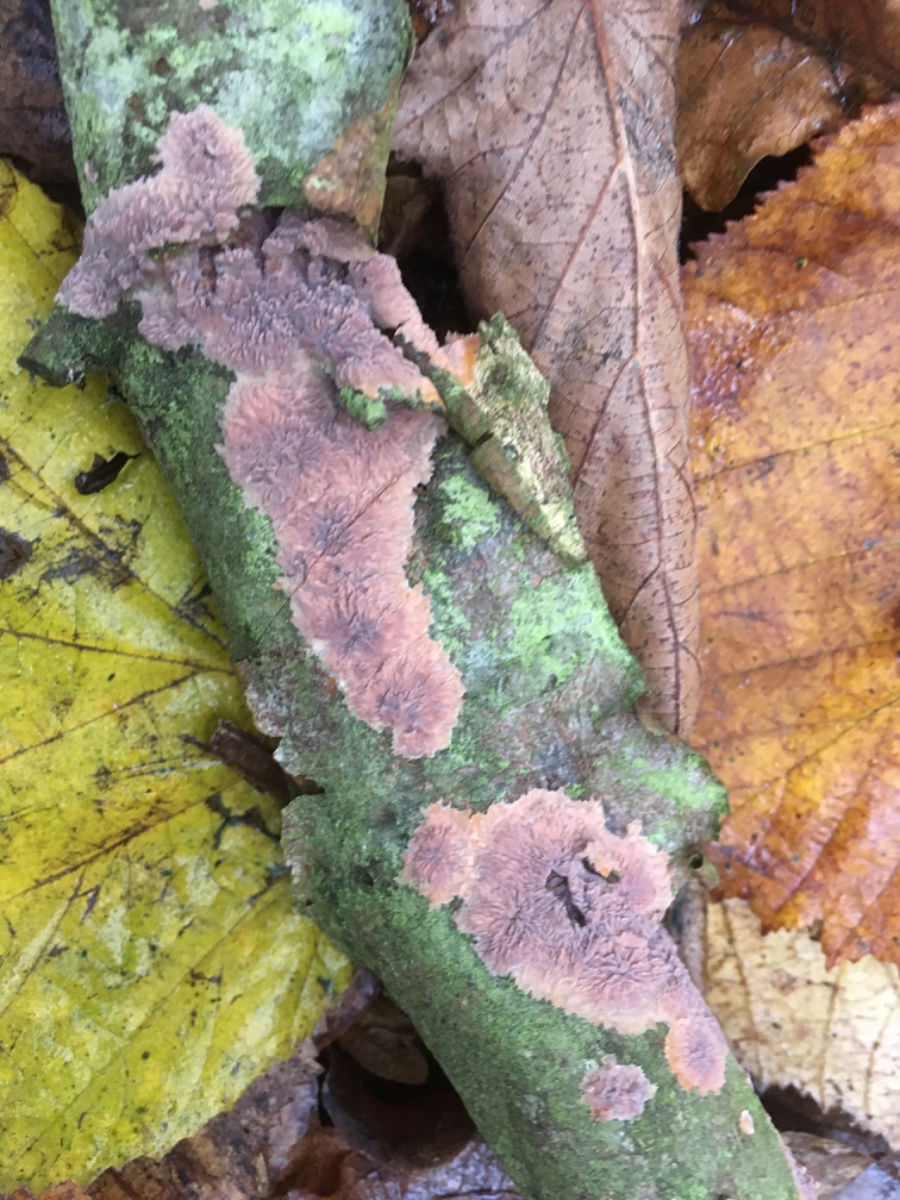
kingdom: Fungi
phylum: Basidiomycota
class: Agaricomycetes
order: Polyporales
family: Meruliaceae
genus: Phlebia
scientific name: Phlebia radiata
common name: stråle-åresvamp
